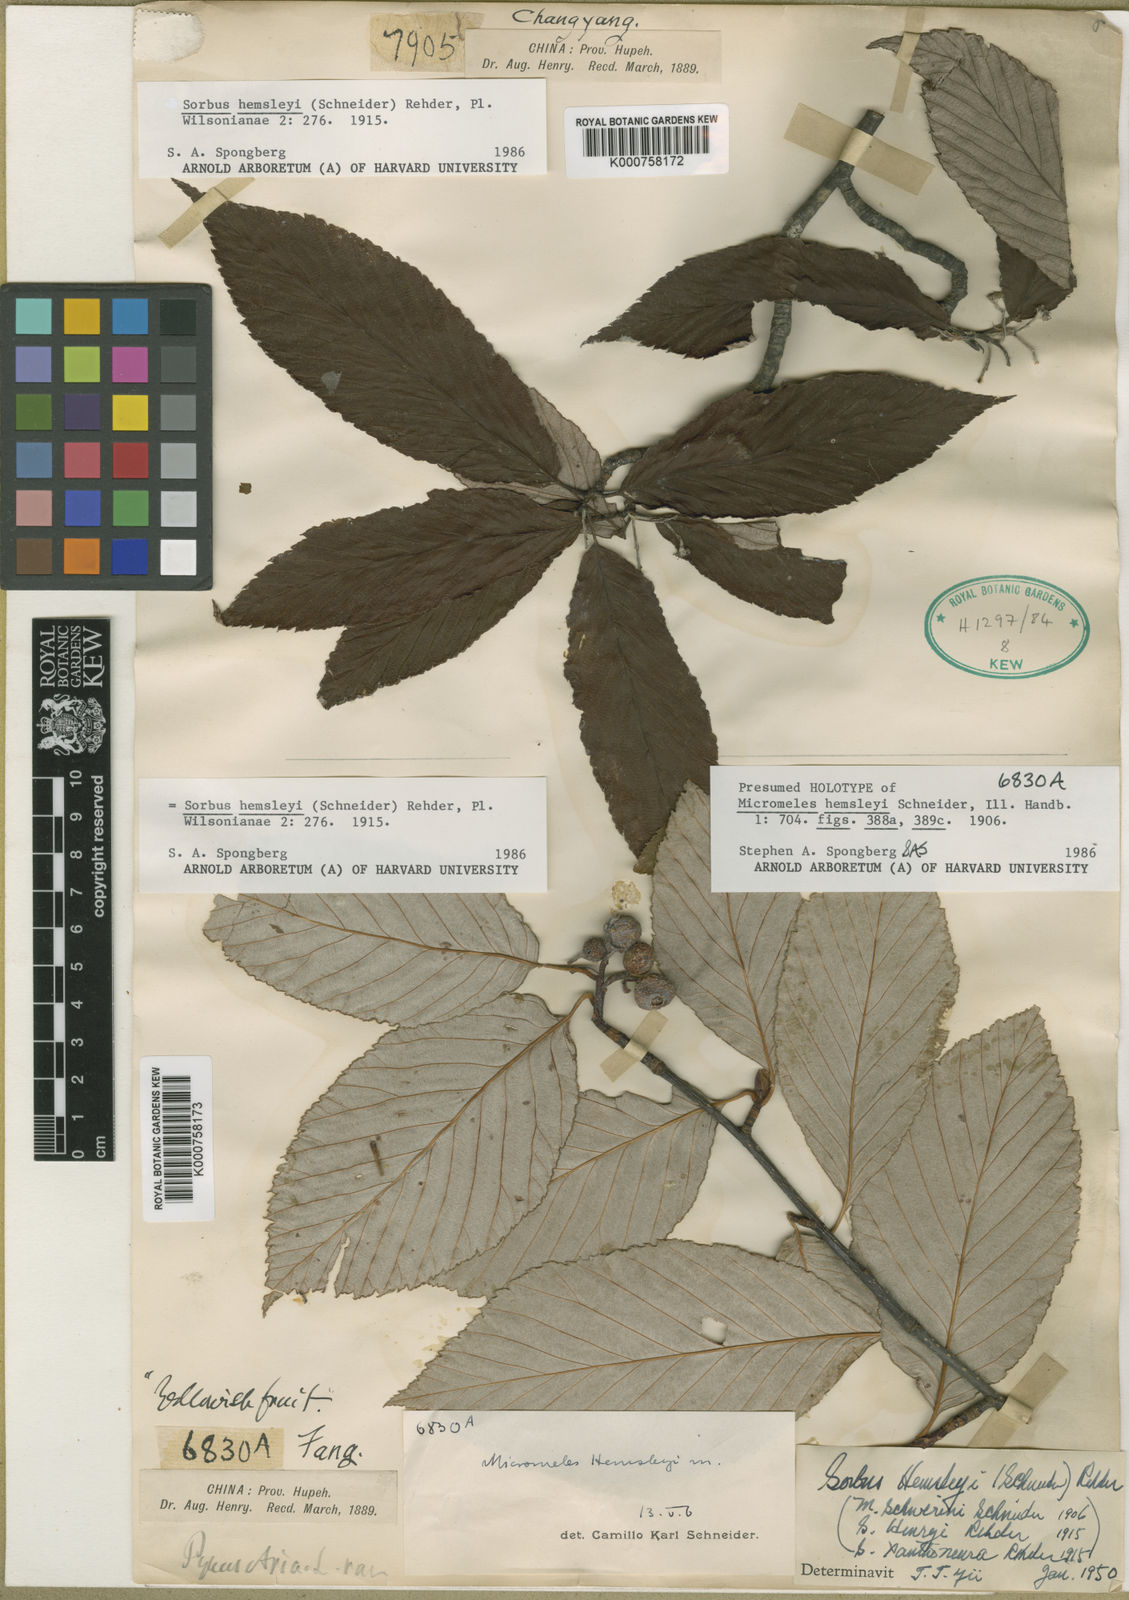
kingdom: Plantae
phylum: Tracheophyta
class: Magnoliopsida
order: Rosales
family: Rosaceae
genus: Sorbus
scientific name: Sorbus hemsleyi
